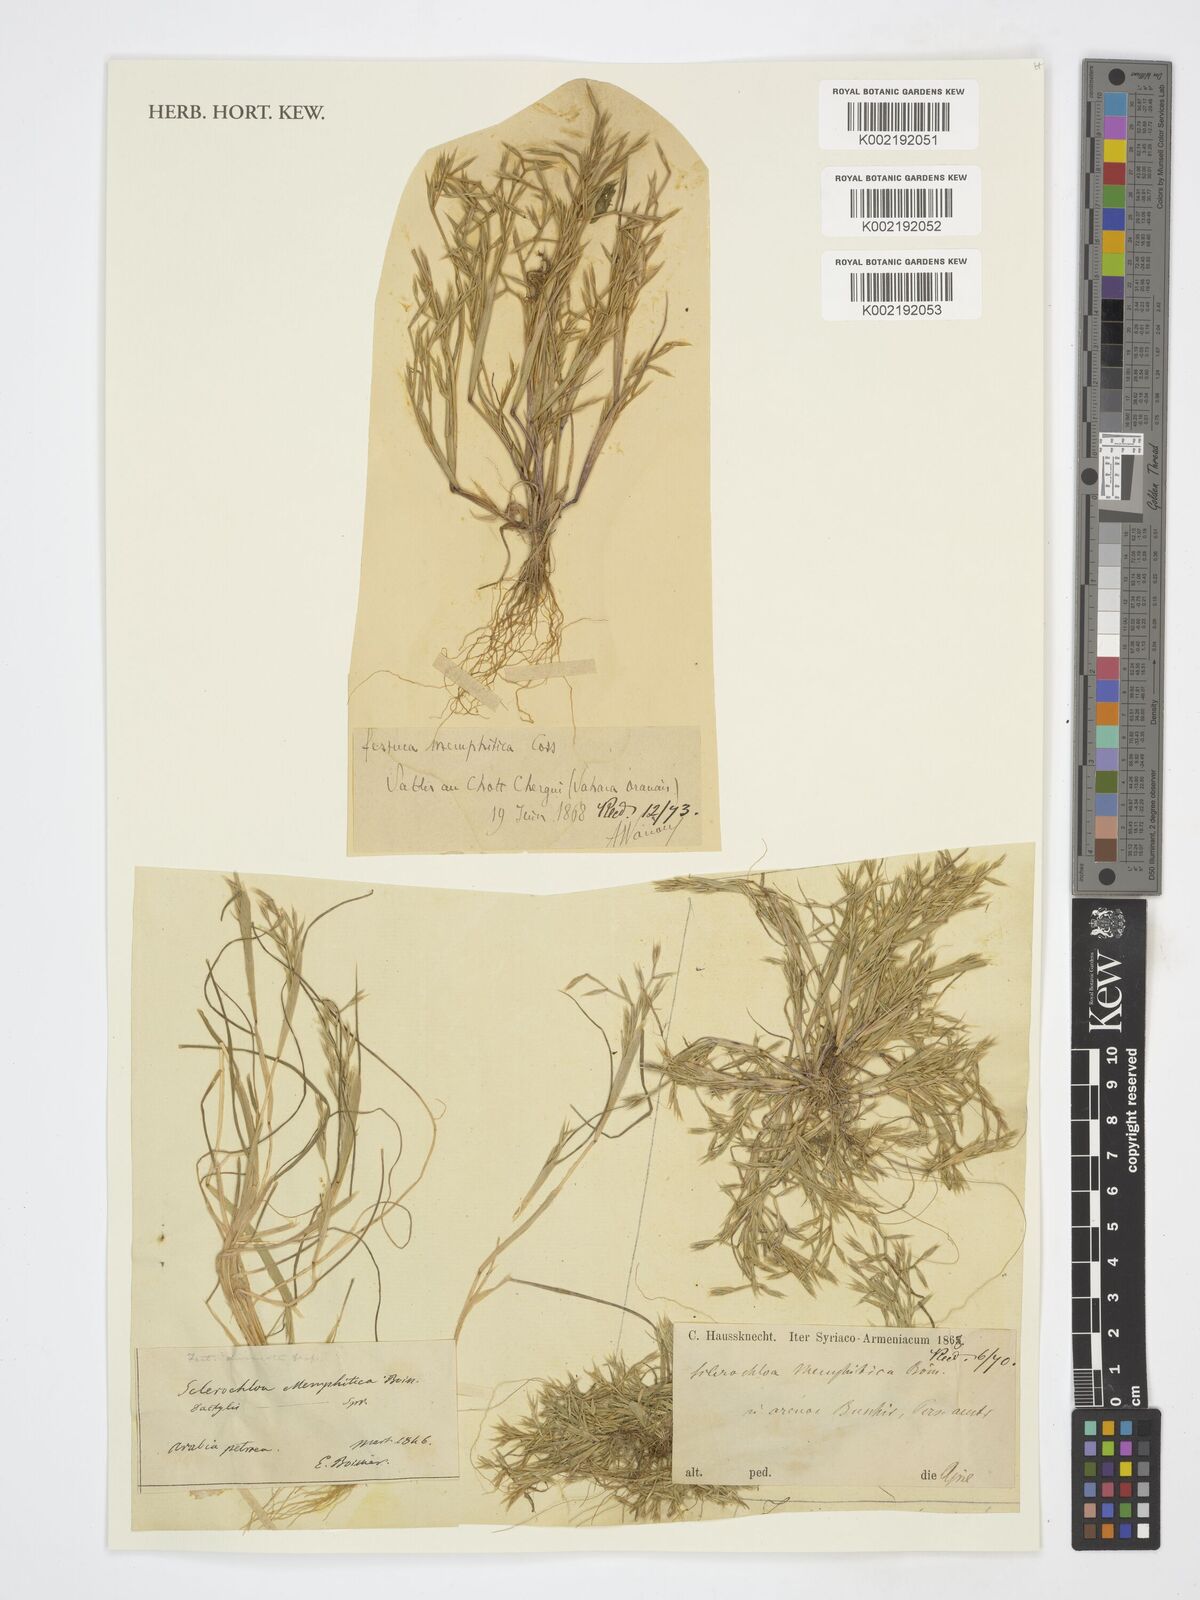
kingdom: Plantae
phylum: Tracheophyta
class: Liliopsida
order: Poales
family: Poaceae
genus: Cutandia
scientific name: Cutandia
